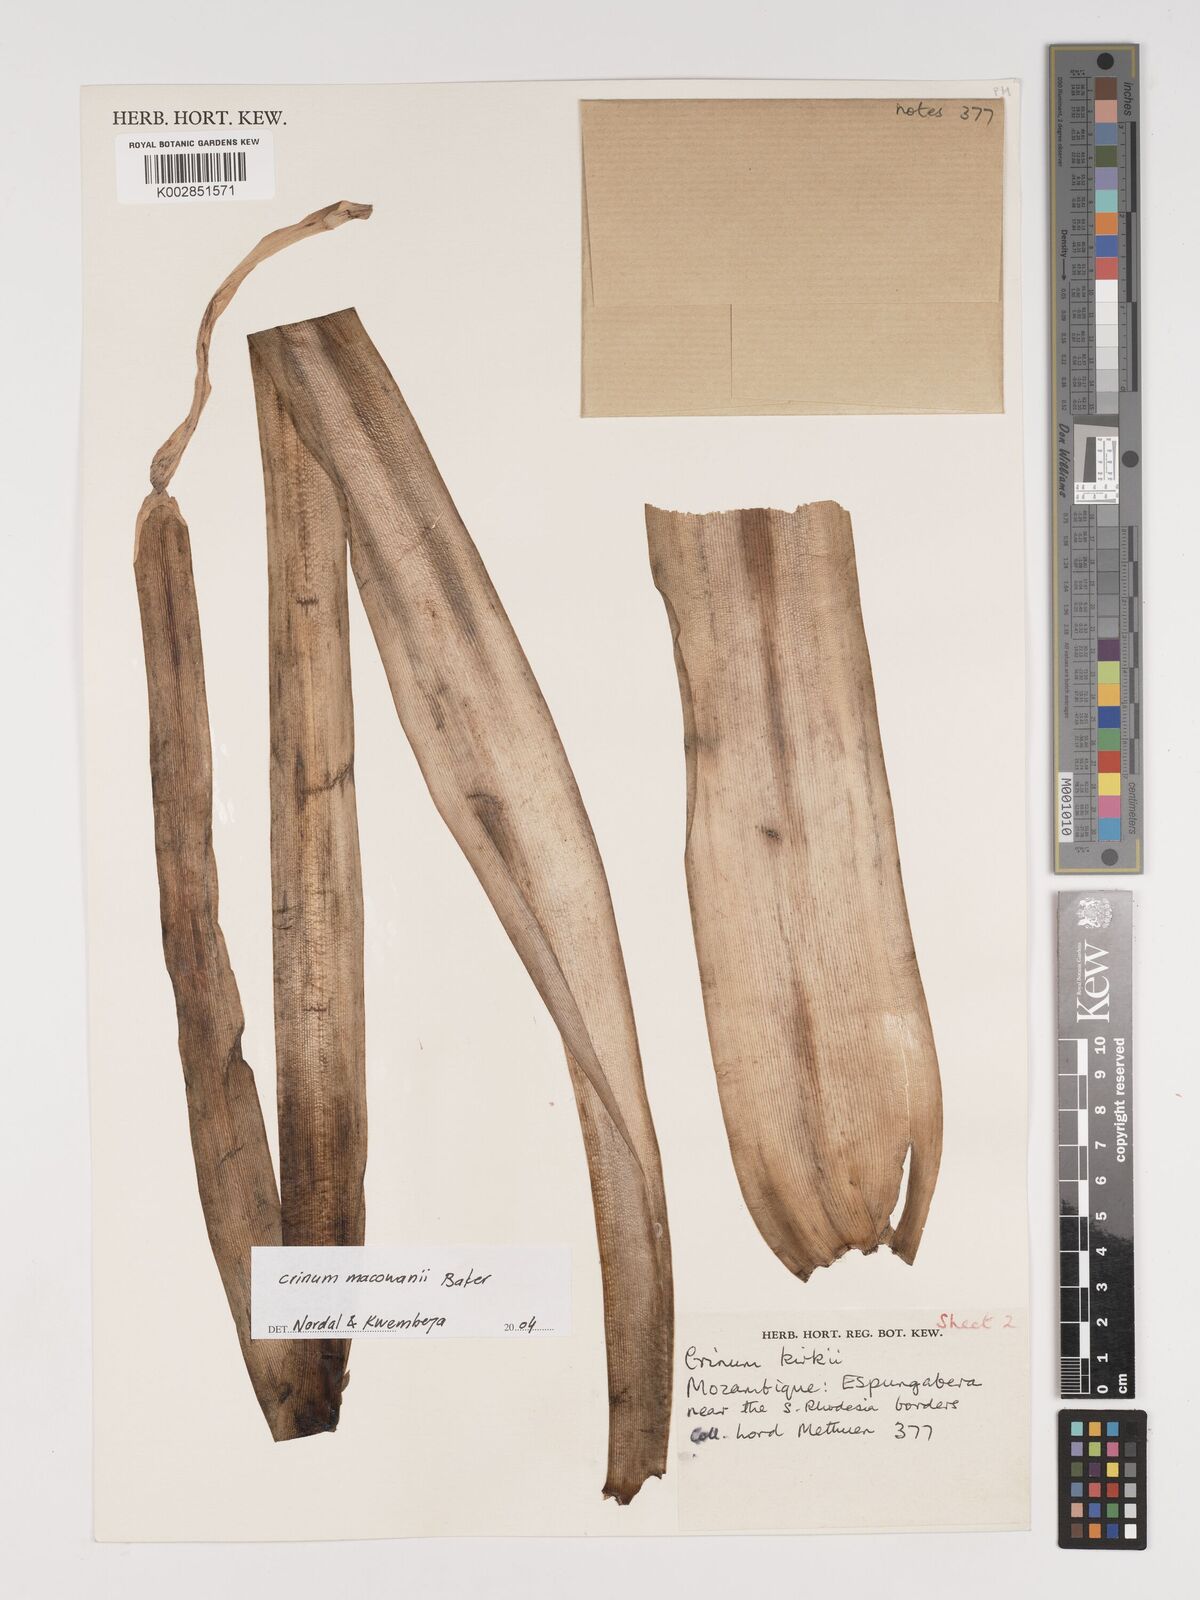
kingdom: Plantae
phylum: Tracheophyta
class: Liliopsida
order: Asparagales
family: Amaryllidaceae
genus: Crinum
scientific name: Crinum macowanii
